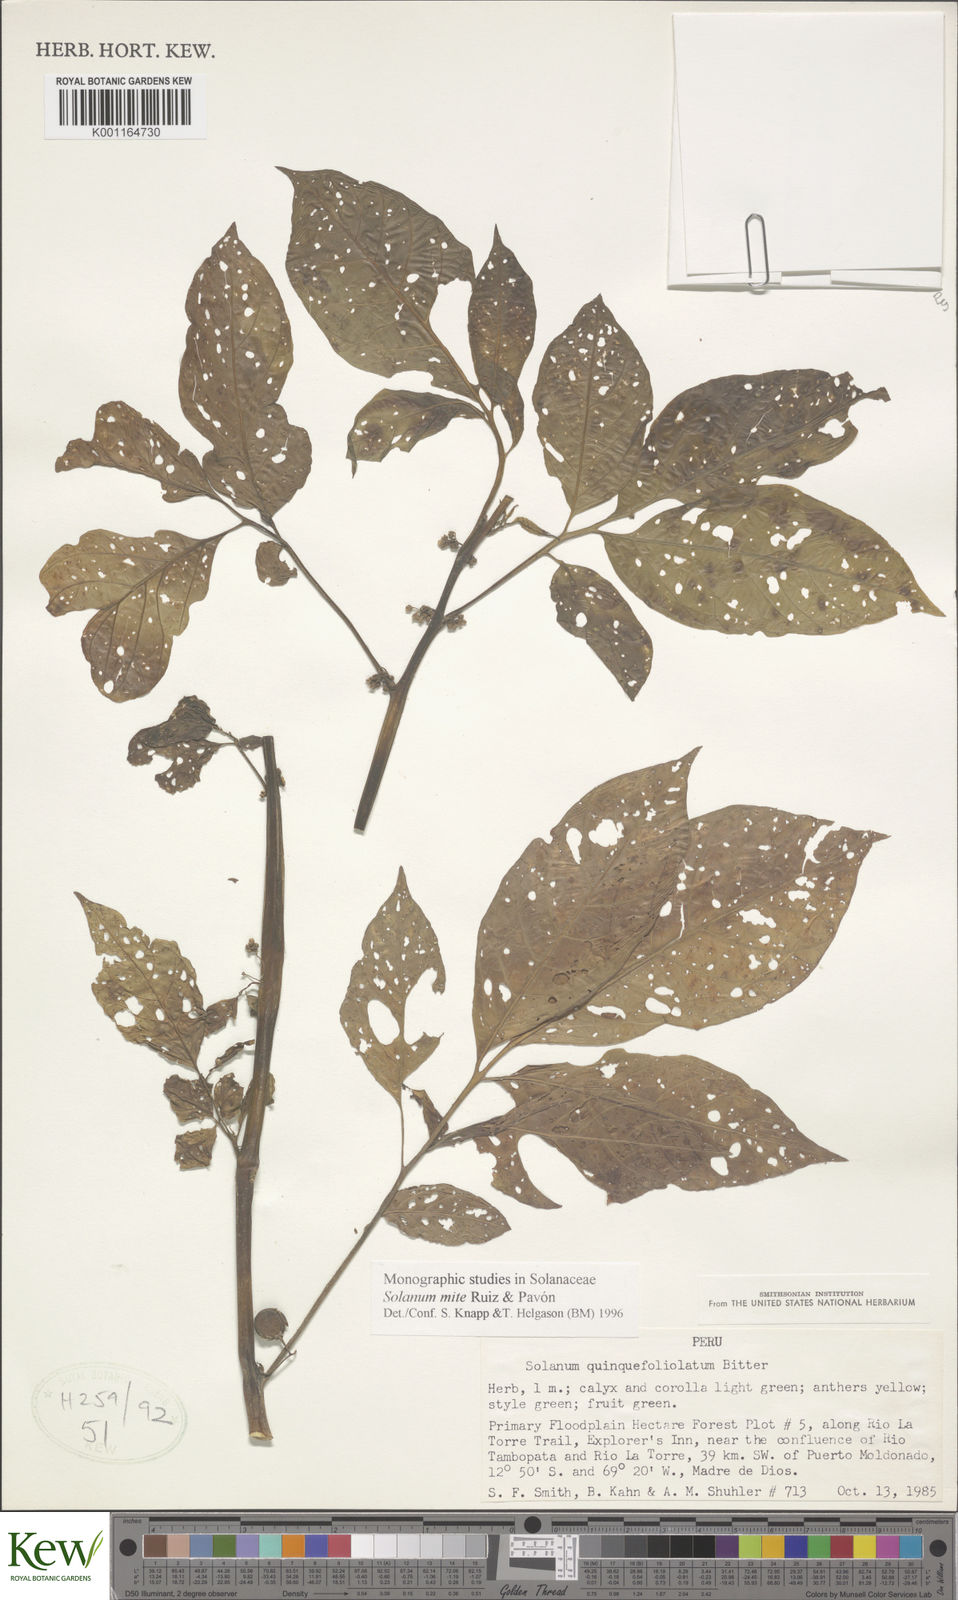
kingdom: Plantae
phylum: Tracheophyta
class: Magnoliopsida
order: Solanales
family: Solanaceae
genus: Solanum
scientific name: Solanum mite
